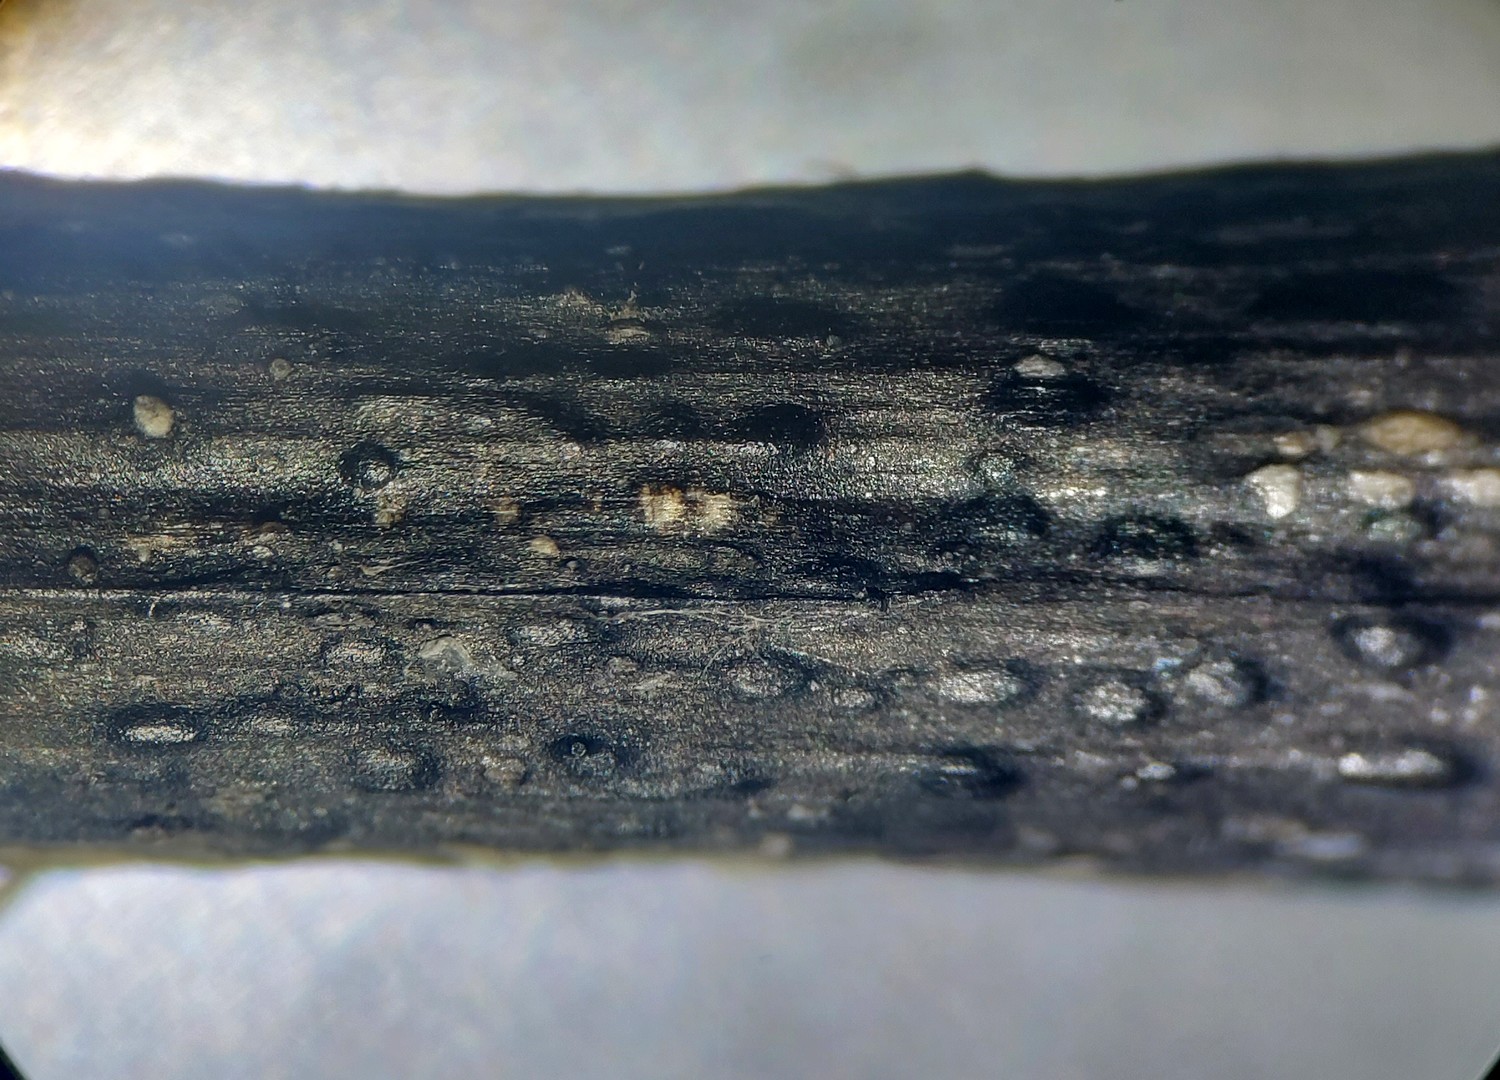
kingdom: Fungi
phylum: Ascomycota
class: Sordariomycetes
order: Diaporthales
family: Diaporthaceae
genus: Diaporthopsis
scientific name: Diaporthopsis urticae
